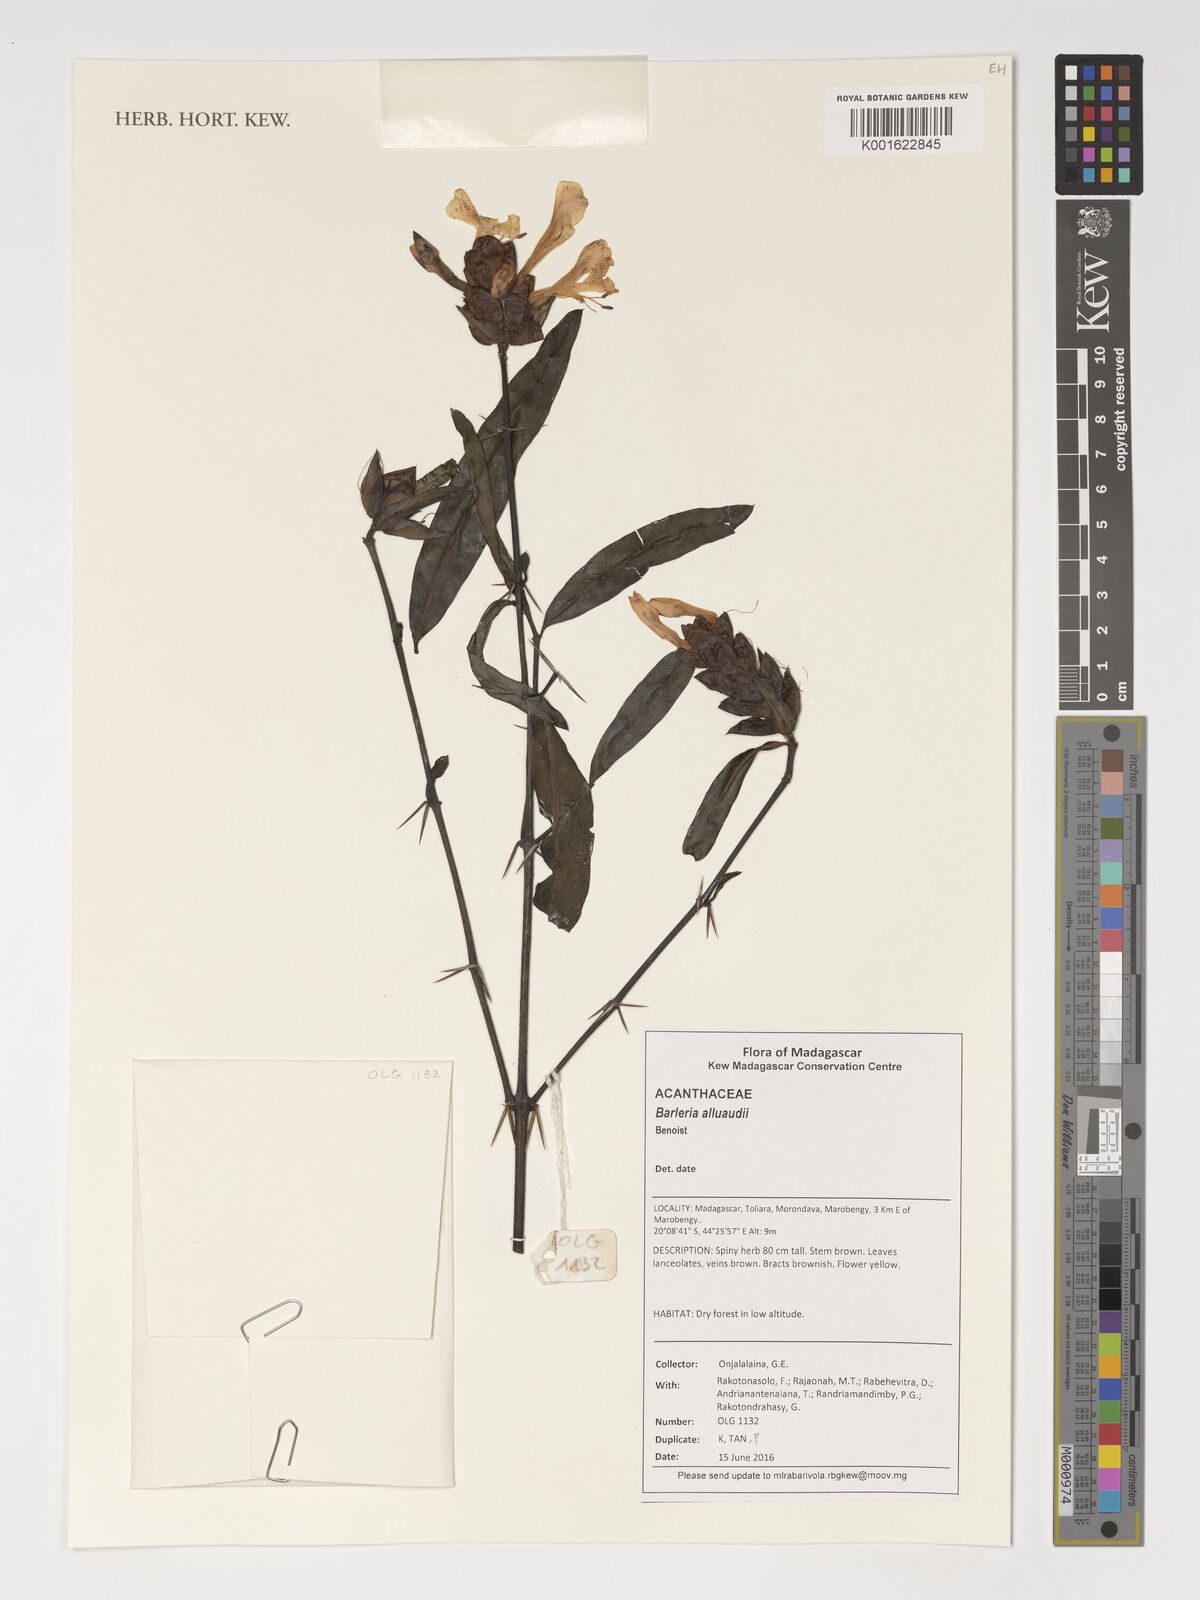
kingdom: Plantae
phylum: Tracheophyta
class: Magnoliopsida
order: Lamiales
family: Acanthaceae
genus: Barleria
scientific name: Barleria alluaudii
